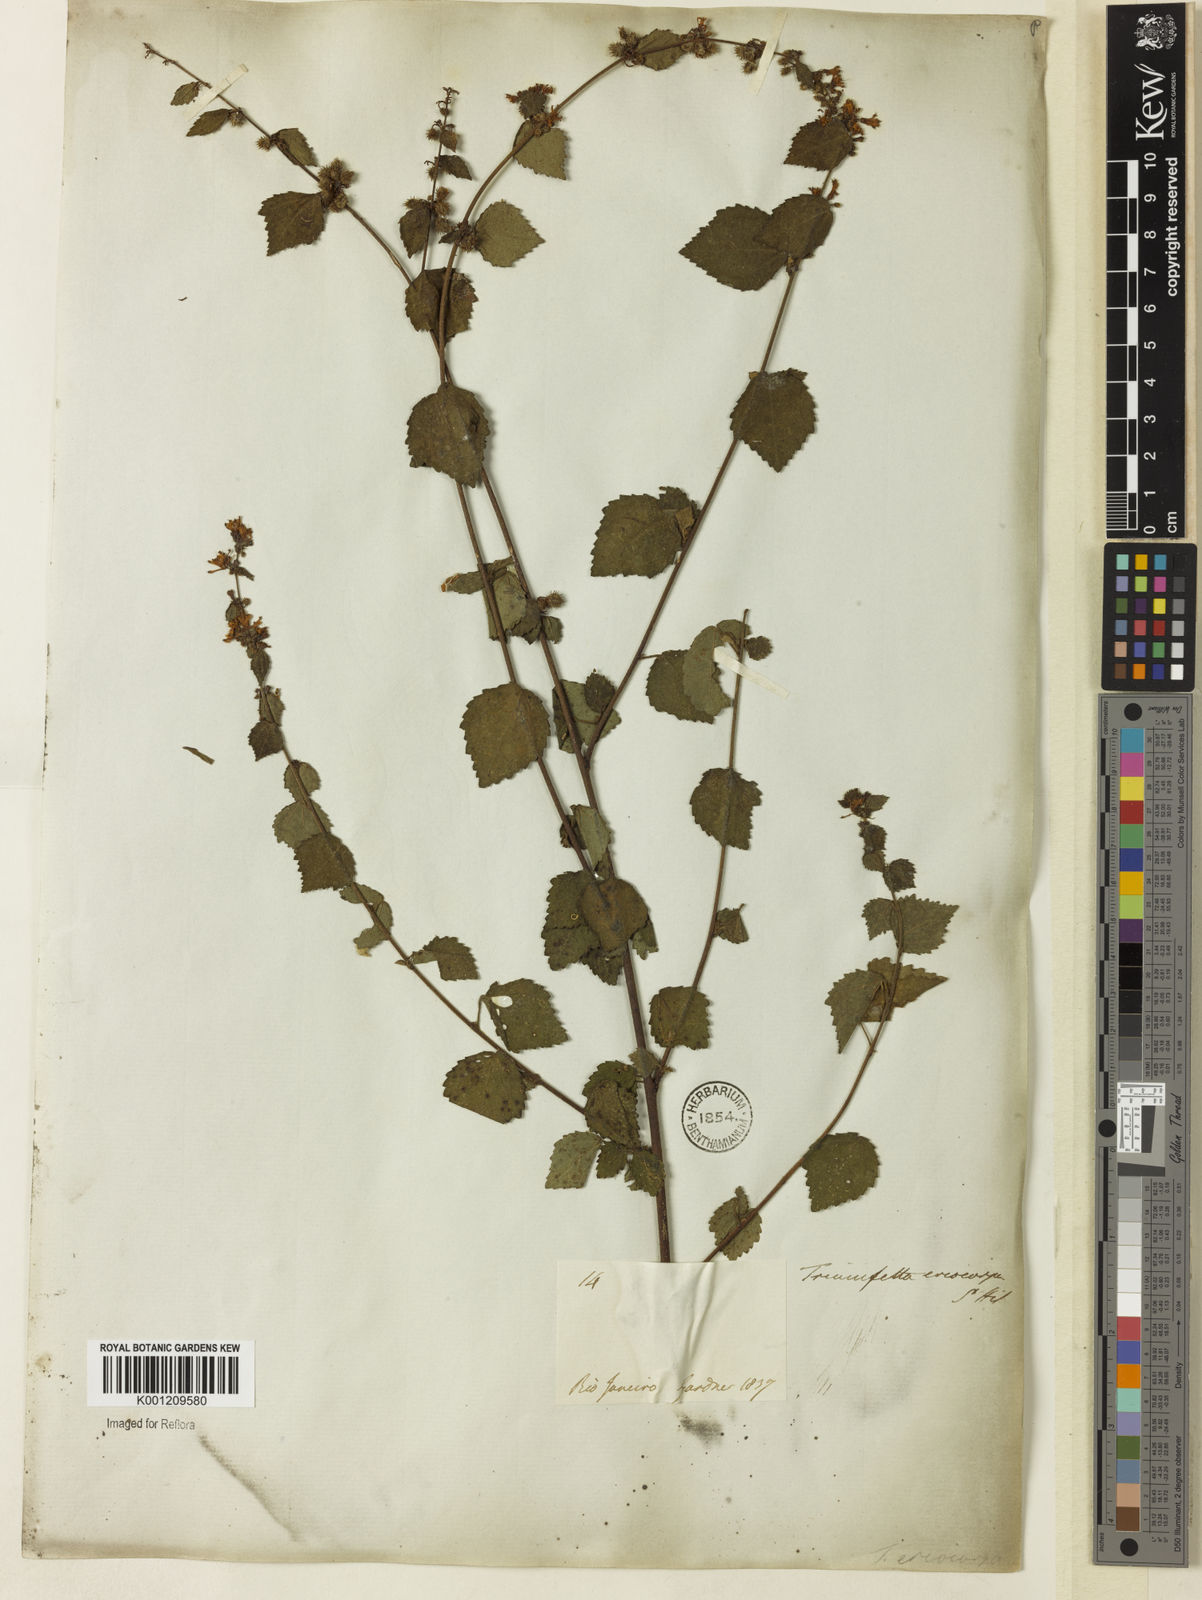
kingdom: Plantae
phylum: Tracheophyta
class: Magnoliopsida
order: Malvales
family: Malvaceae
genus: Triumfetta
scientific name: Triumfetta rhomboidea
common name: Diamond burbark
